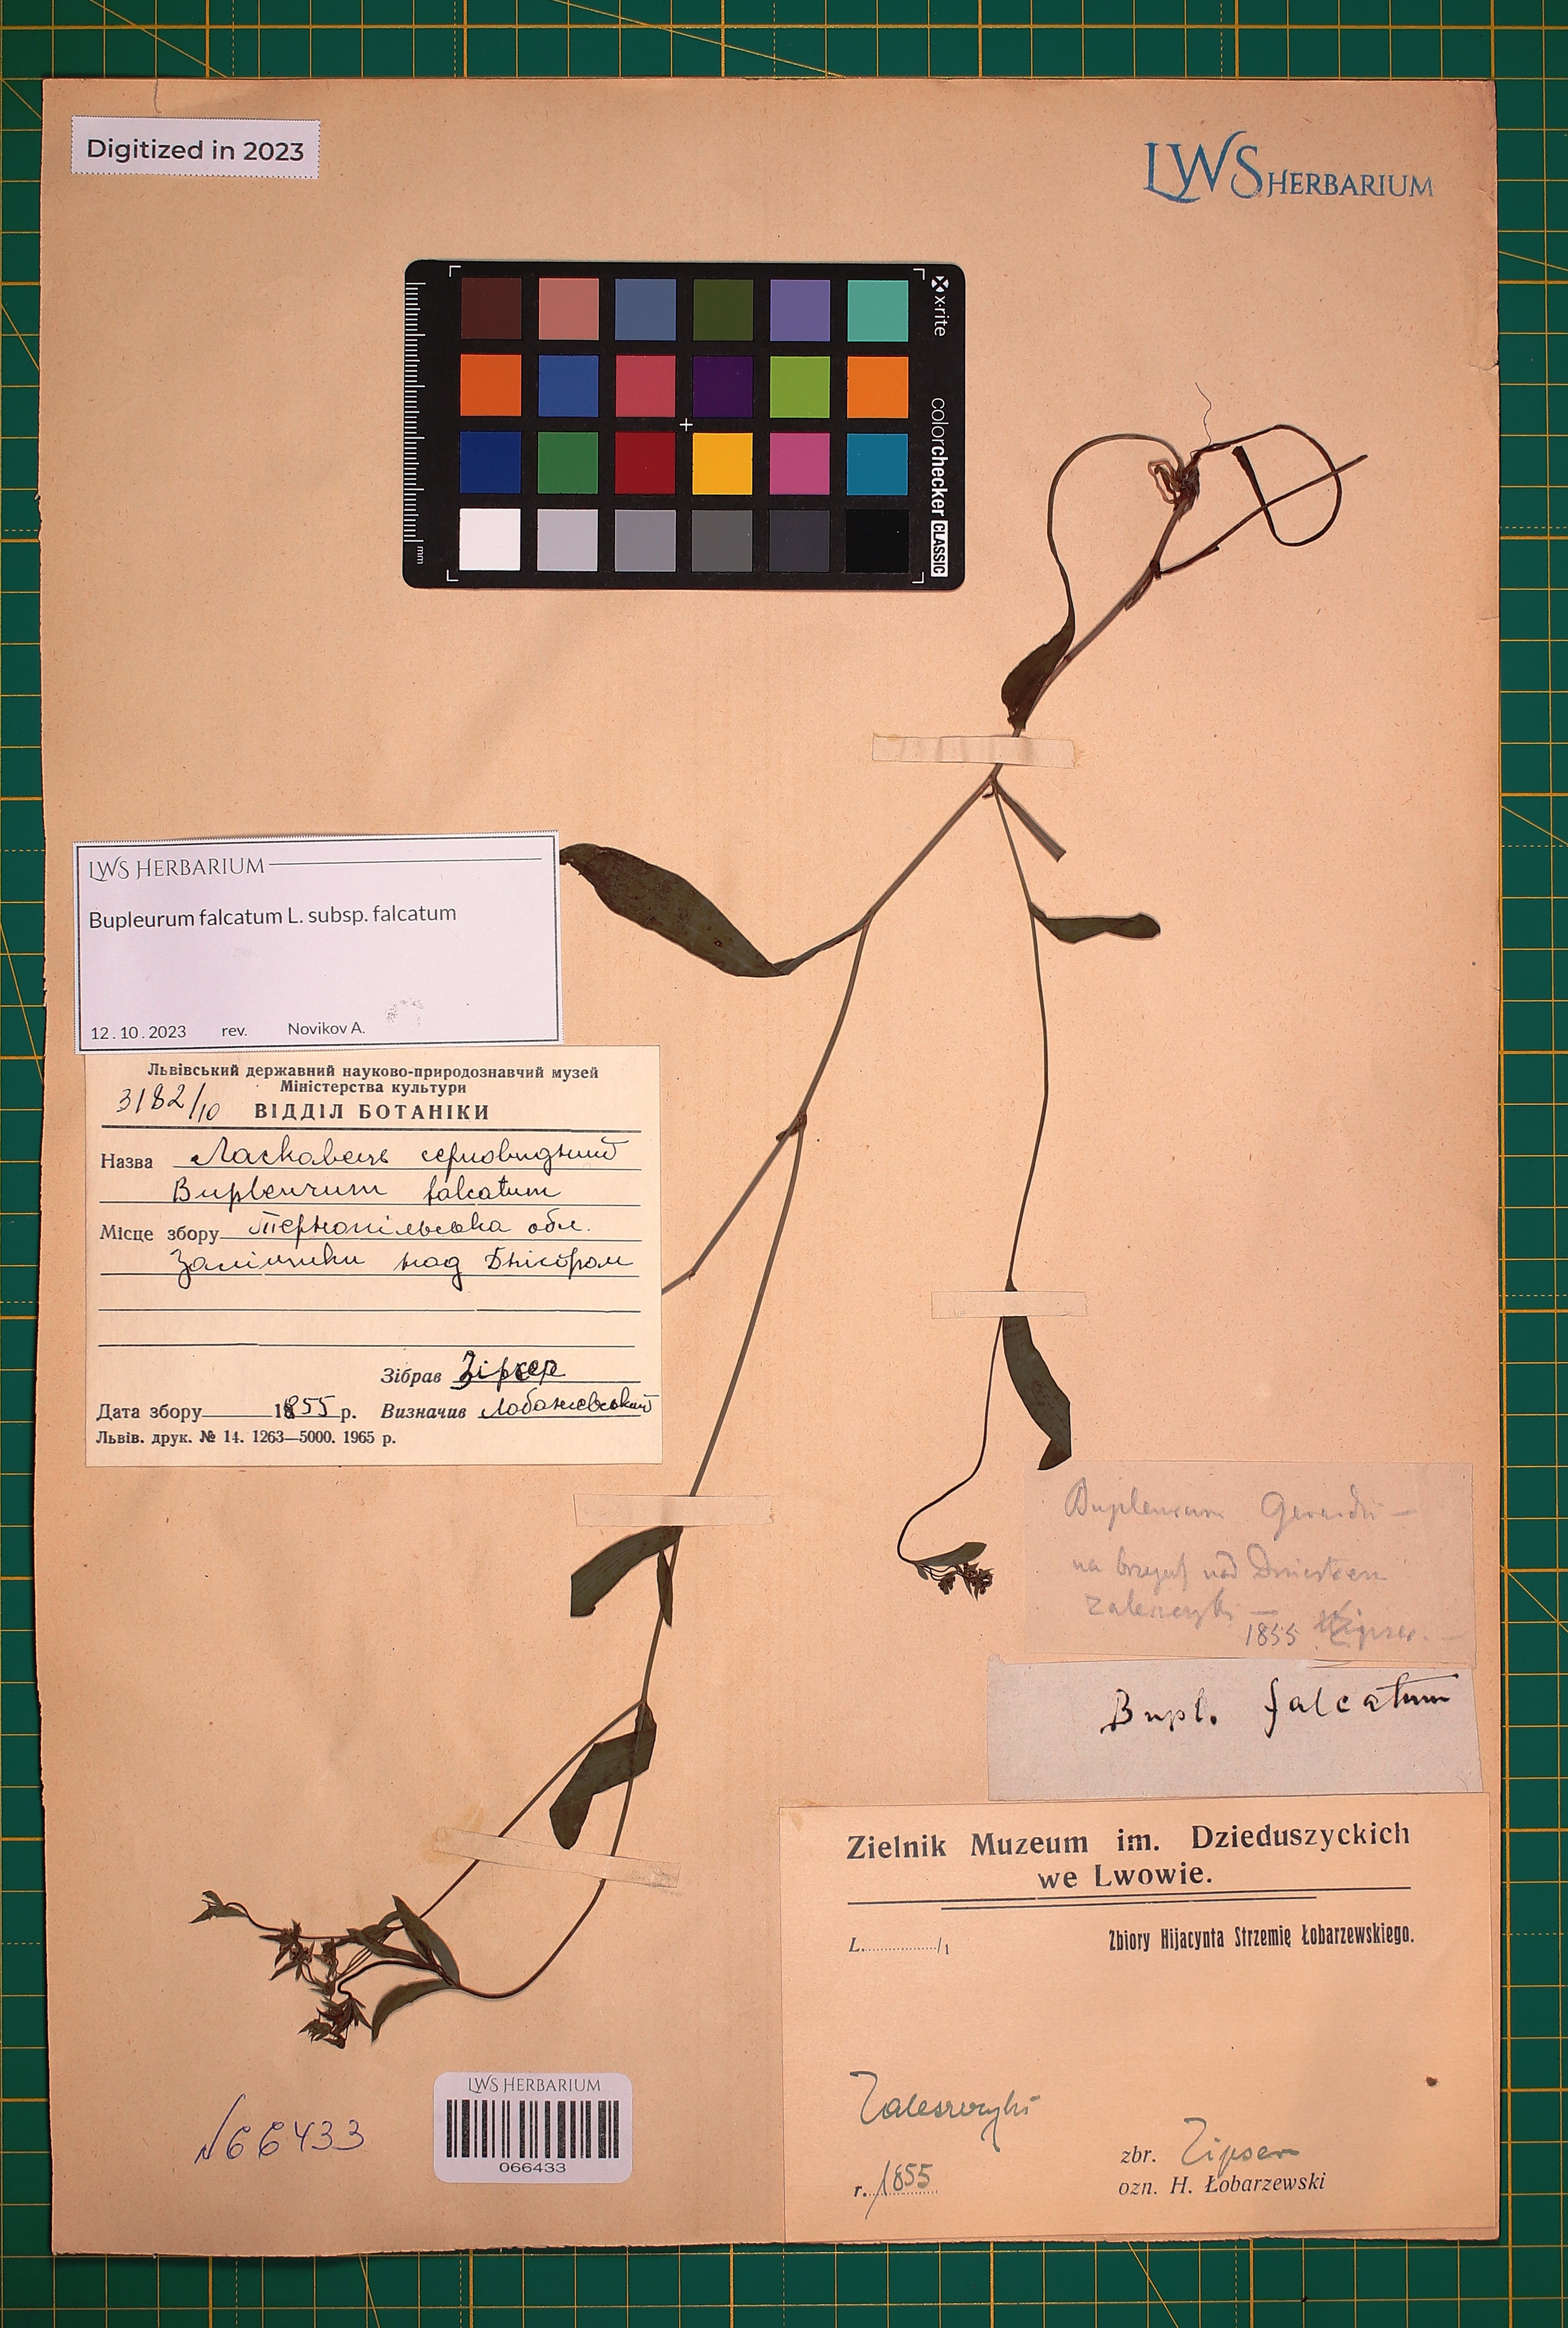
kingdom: Plantae
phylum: Tracheophyta
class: Magnoliopsida
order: Apiales
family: Apiaceae
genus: Bupleurum
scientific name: Bupleurum falcatum
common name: Sickle-leaved hare's-ear
